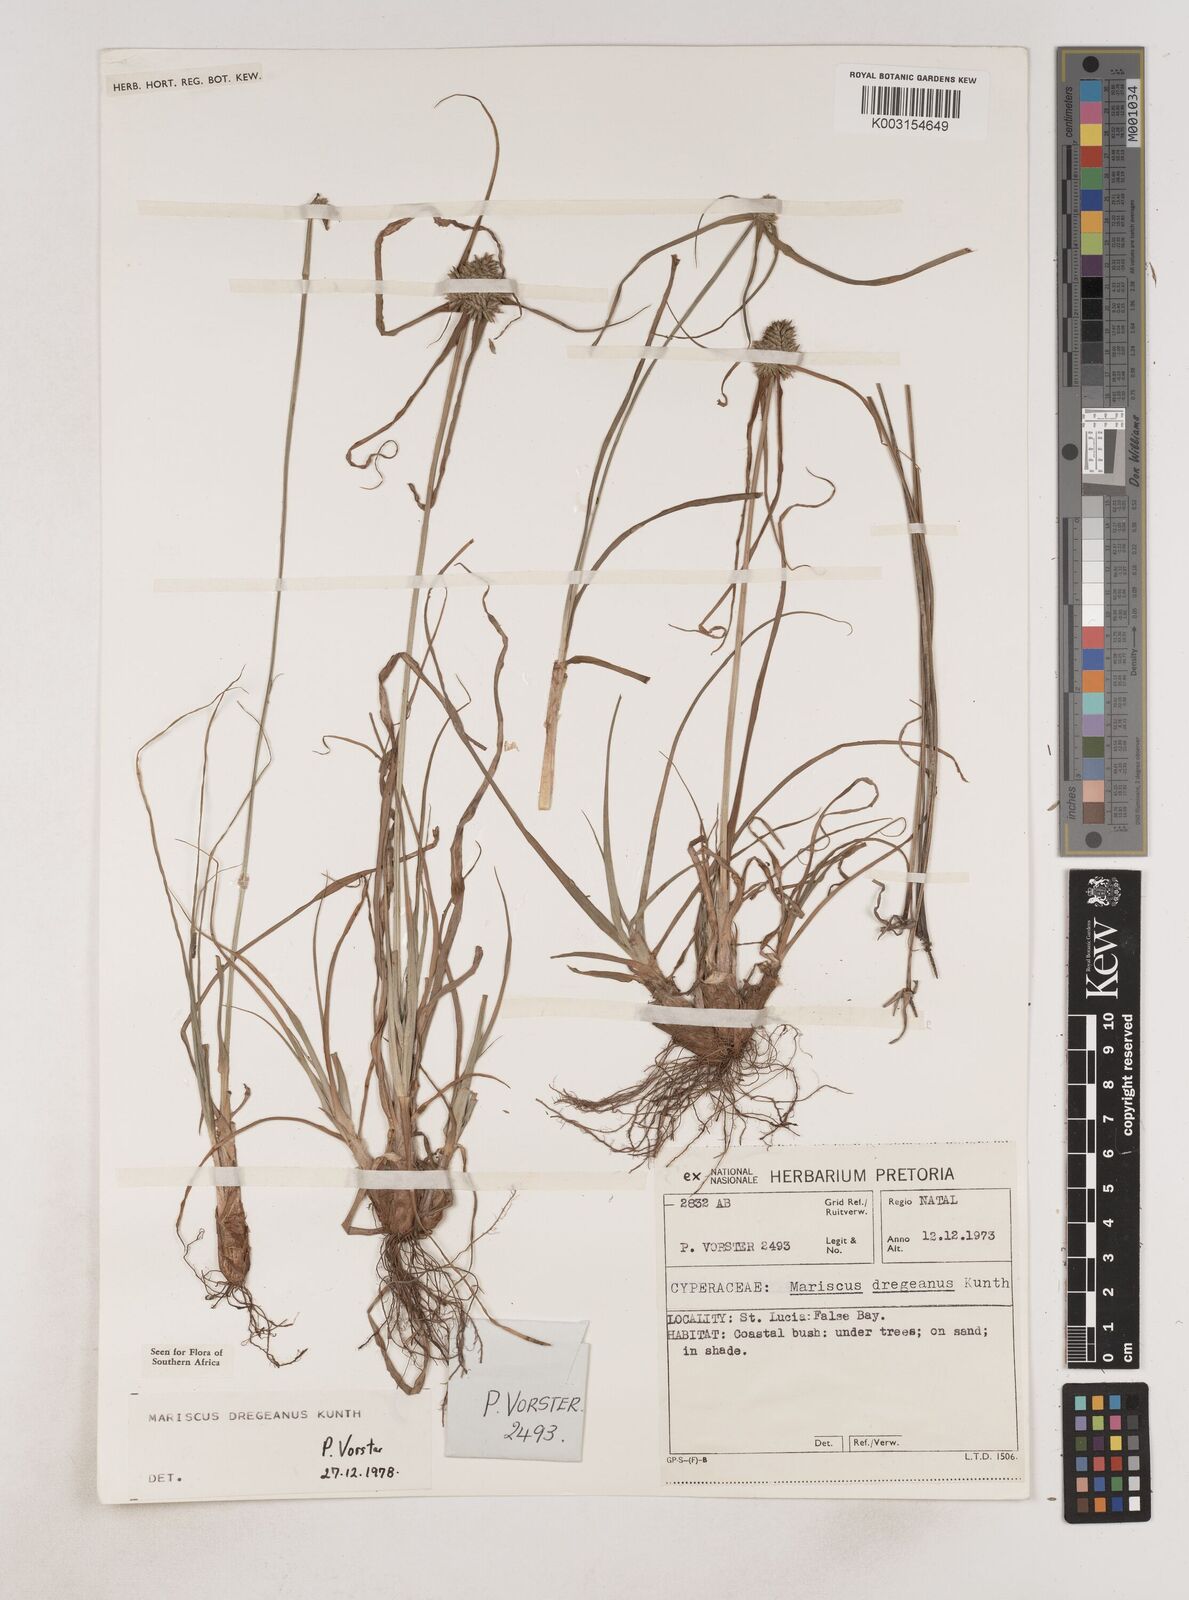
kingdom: Plantae
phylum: Tracheophyta
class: Liliopsida
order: Poales
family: Cyperaceae
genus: Cyperus
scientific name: Cyperus dubius
